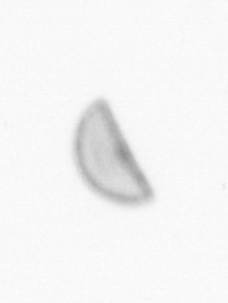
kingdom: Chromista
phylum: Ochrophyta
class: Bacillariophyceae
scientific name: Bacillariophyceae
